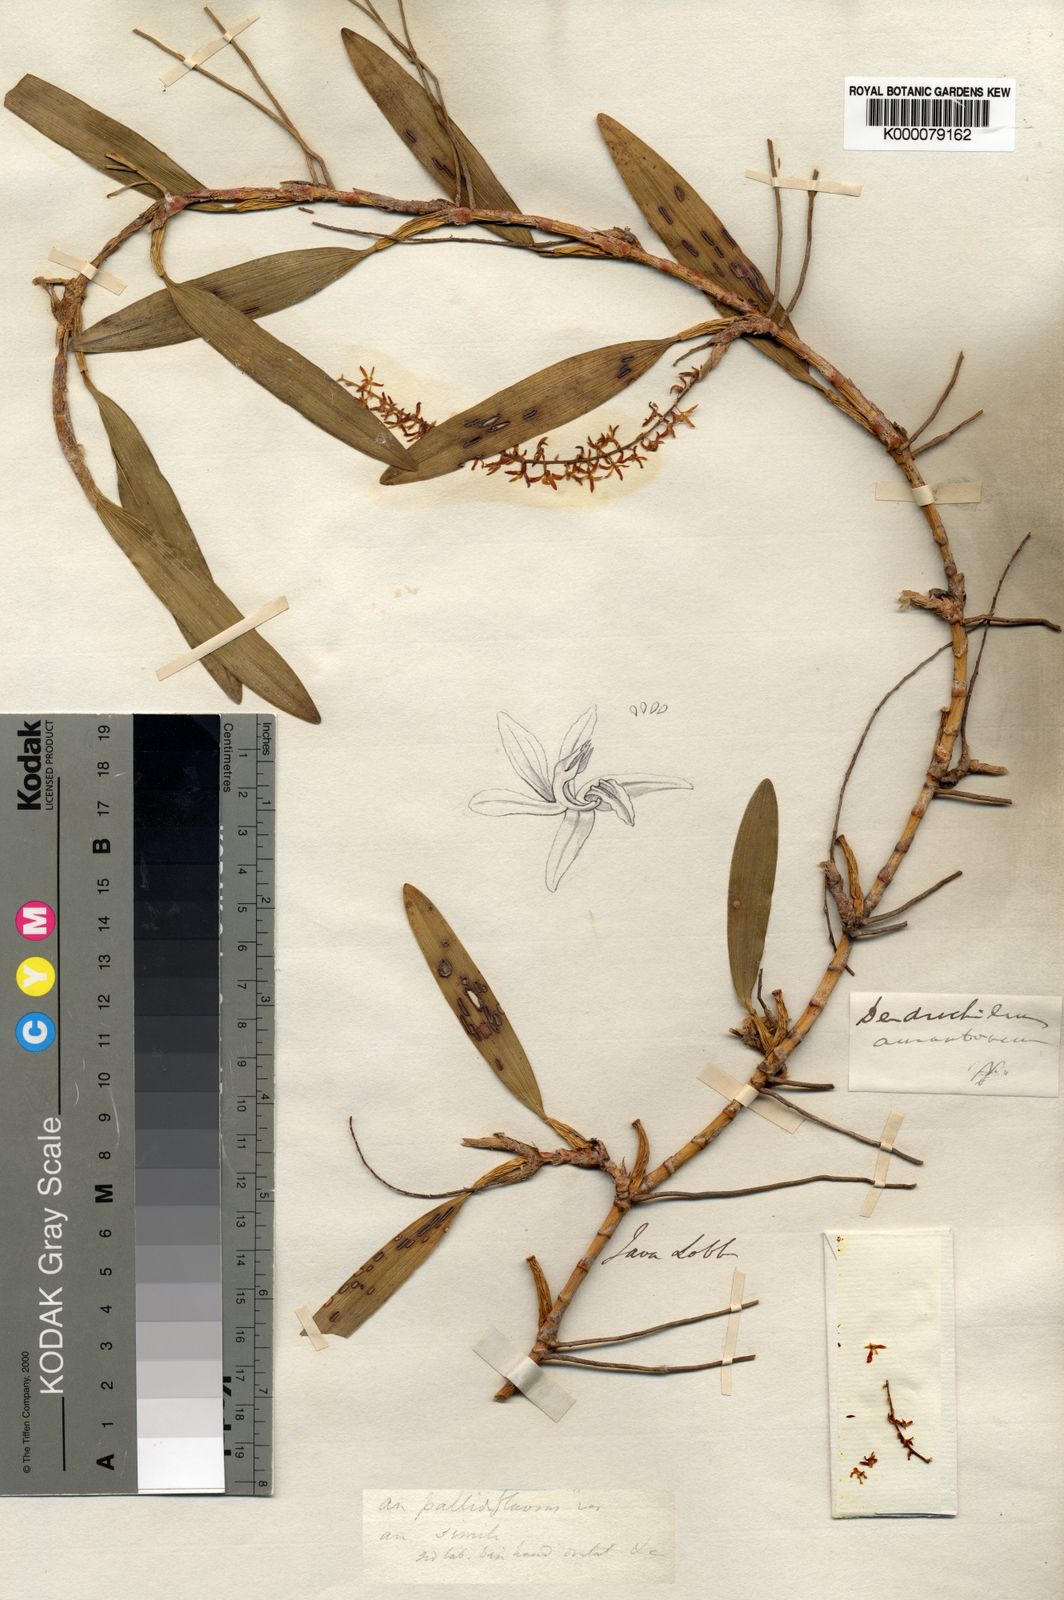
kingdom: Plantae
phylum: Tracheophyta
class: Liliopsida
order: Asparagales
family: Orchidaceae
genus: Coelogyne
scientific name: Coelogyne aurantiaca
